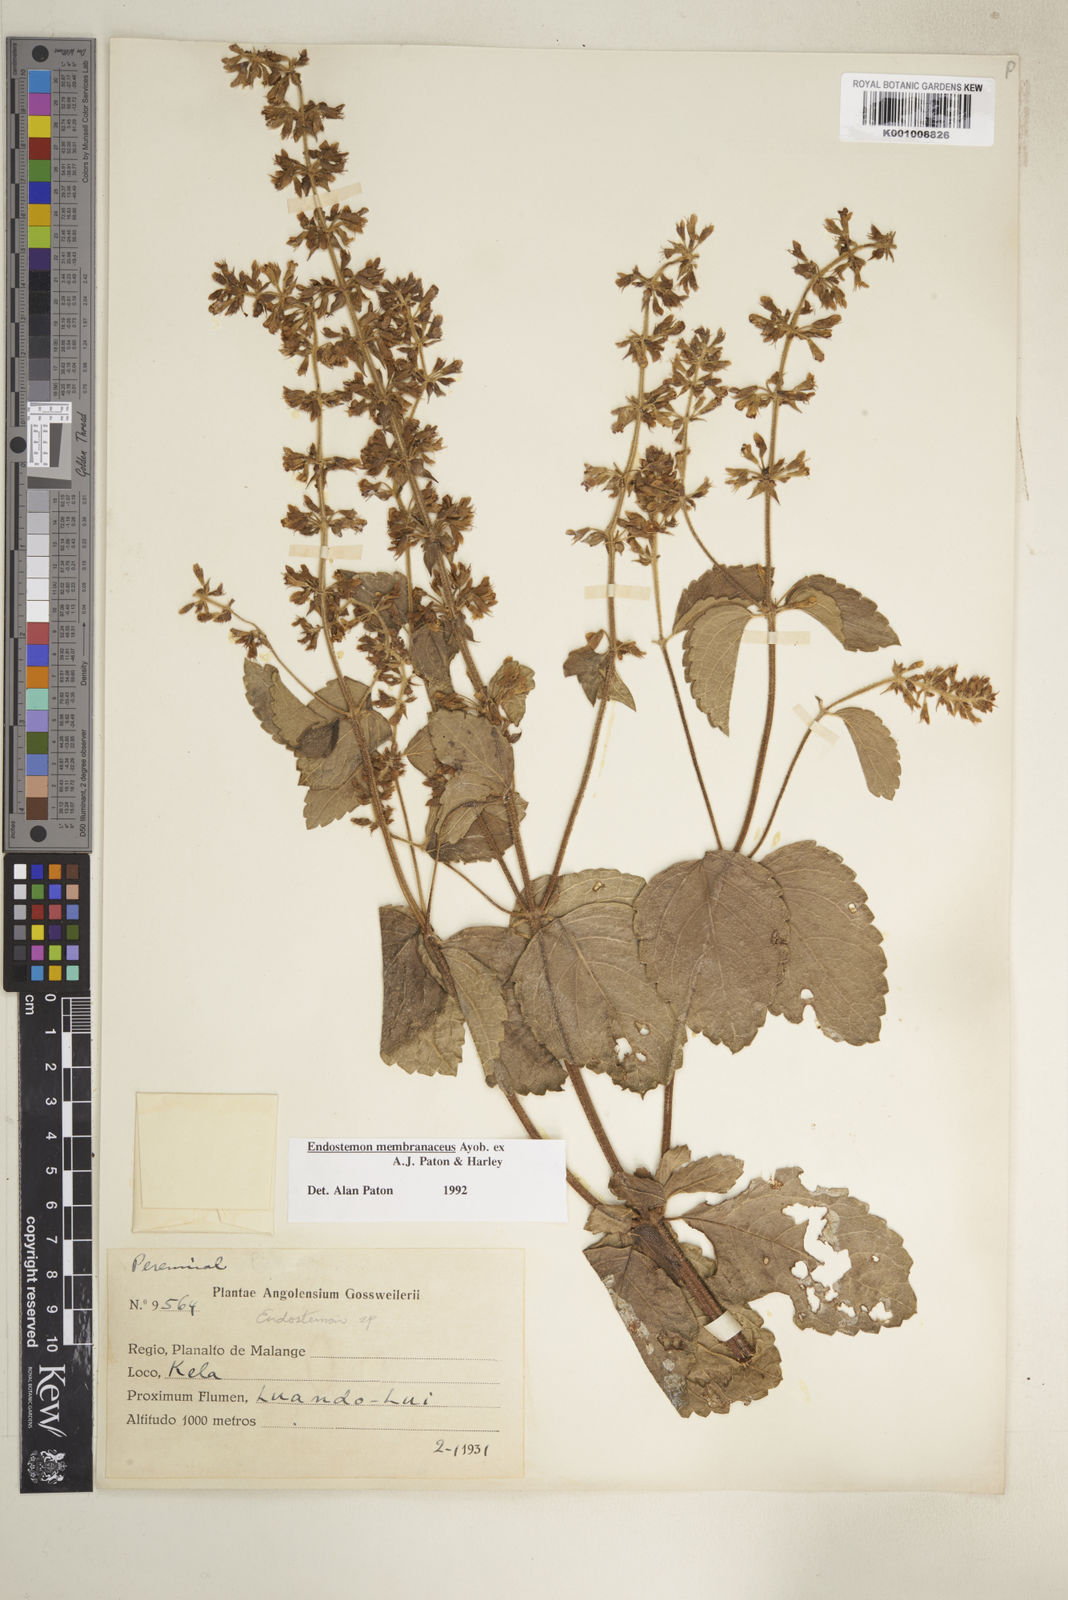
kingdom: Plantae
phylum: Tracheophyta
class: Magnoliopsida
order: Lamiales
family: Lamiaceae
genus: Endostemon
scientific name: Endostemon membranaceus
